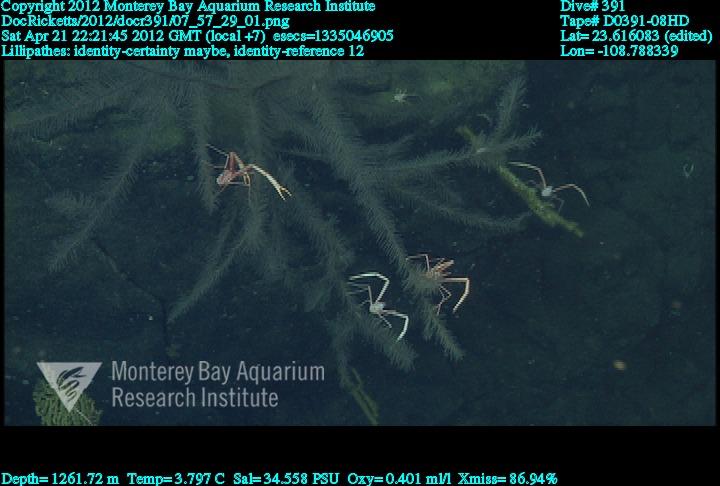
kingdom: Animalia
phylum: Cnidaria
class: Anthozoa
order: Antipatharia
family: Schizopathidae
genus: Lillipathes
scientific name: Lillipathes
